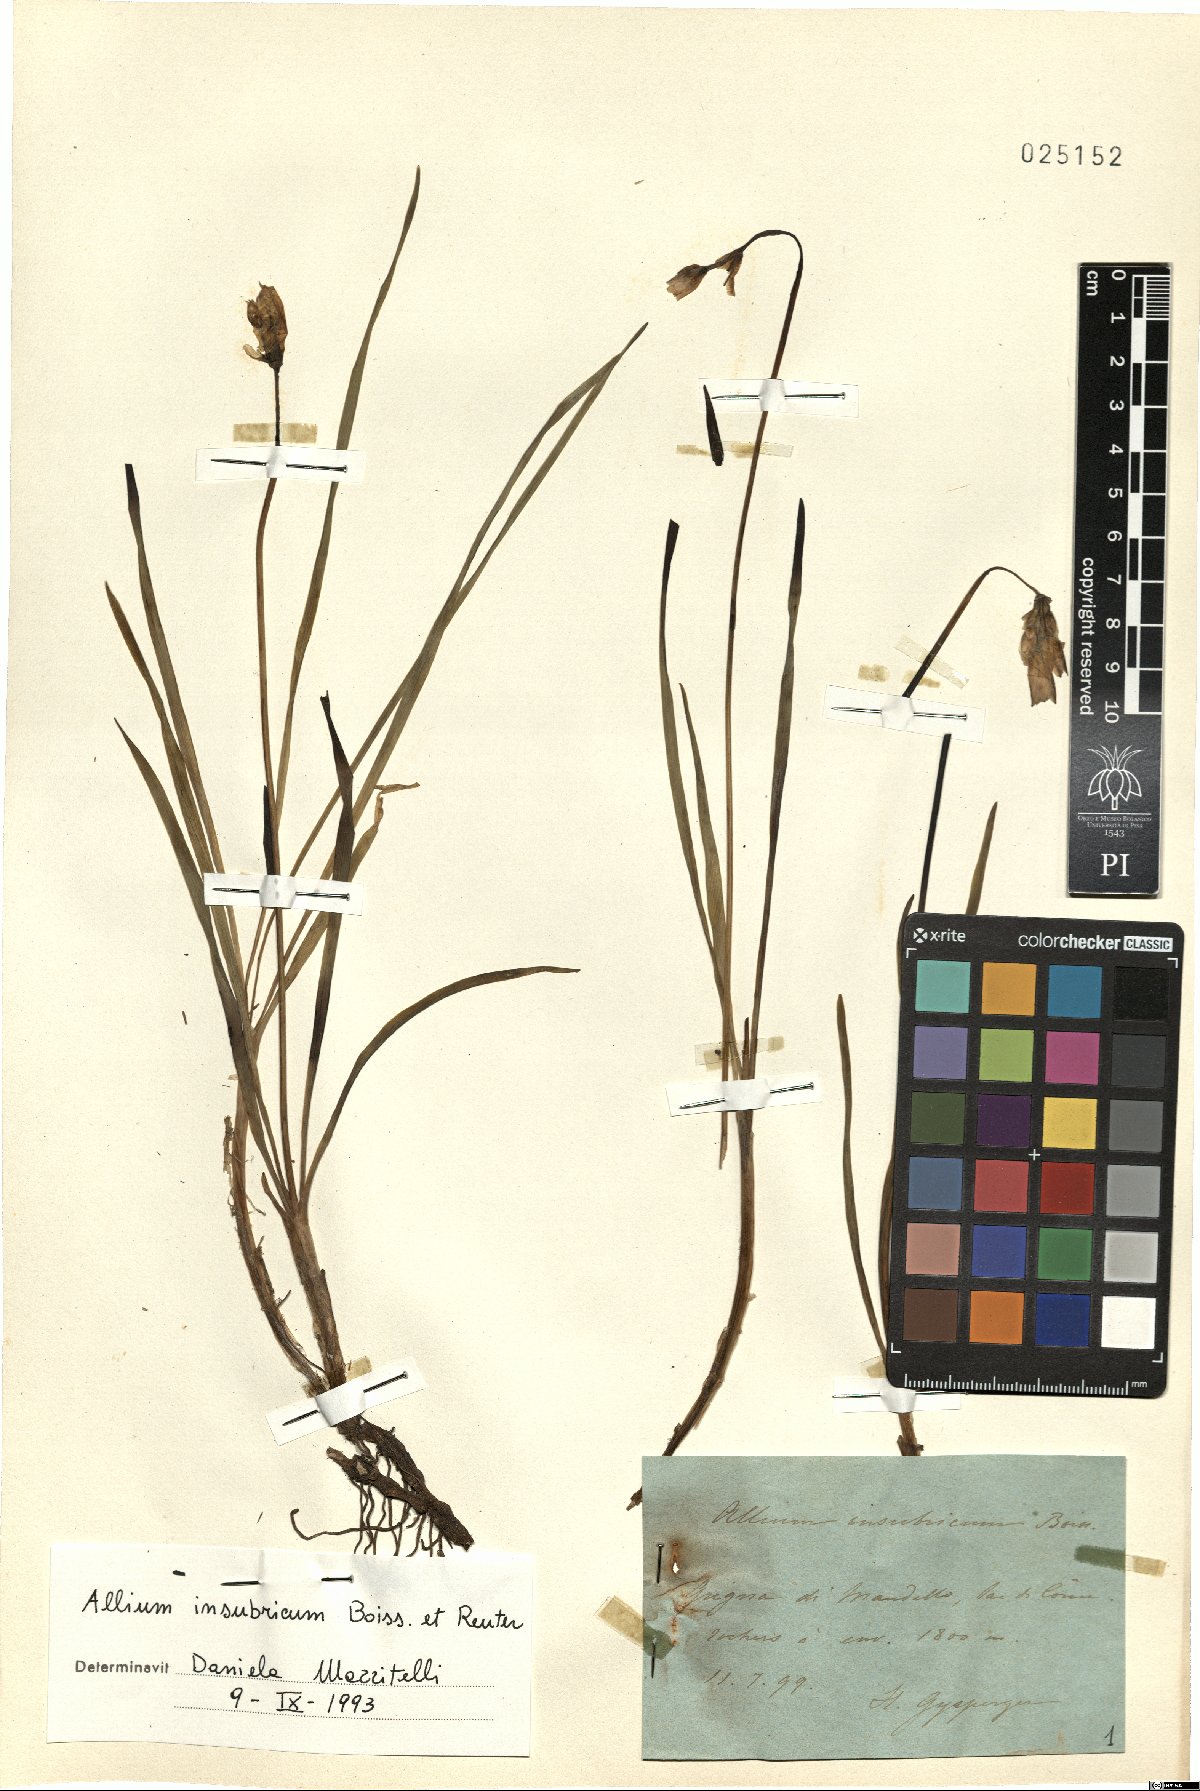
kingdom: Plantae
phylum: Tracheophyta
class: Liliopsida
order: Asparagales
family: Amaryllidaceae
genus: Allium
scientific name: Allium insubricum
